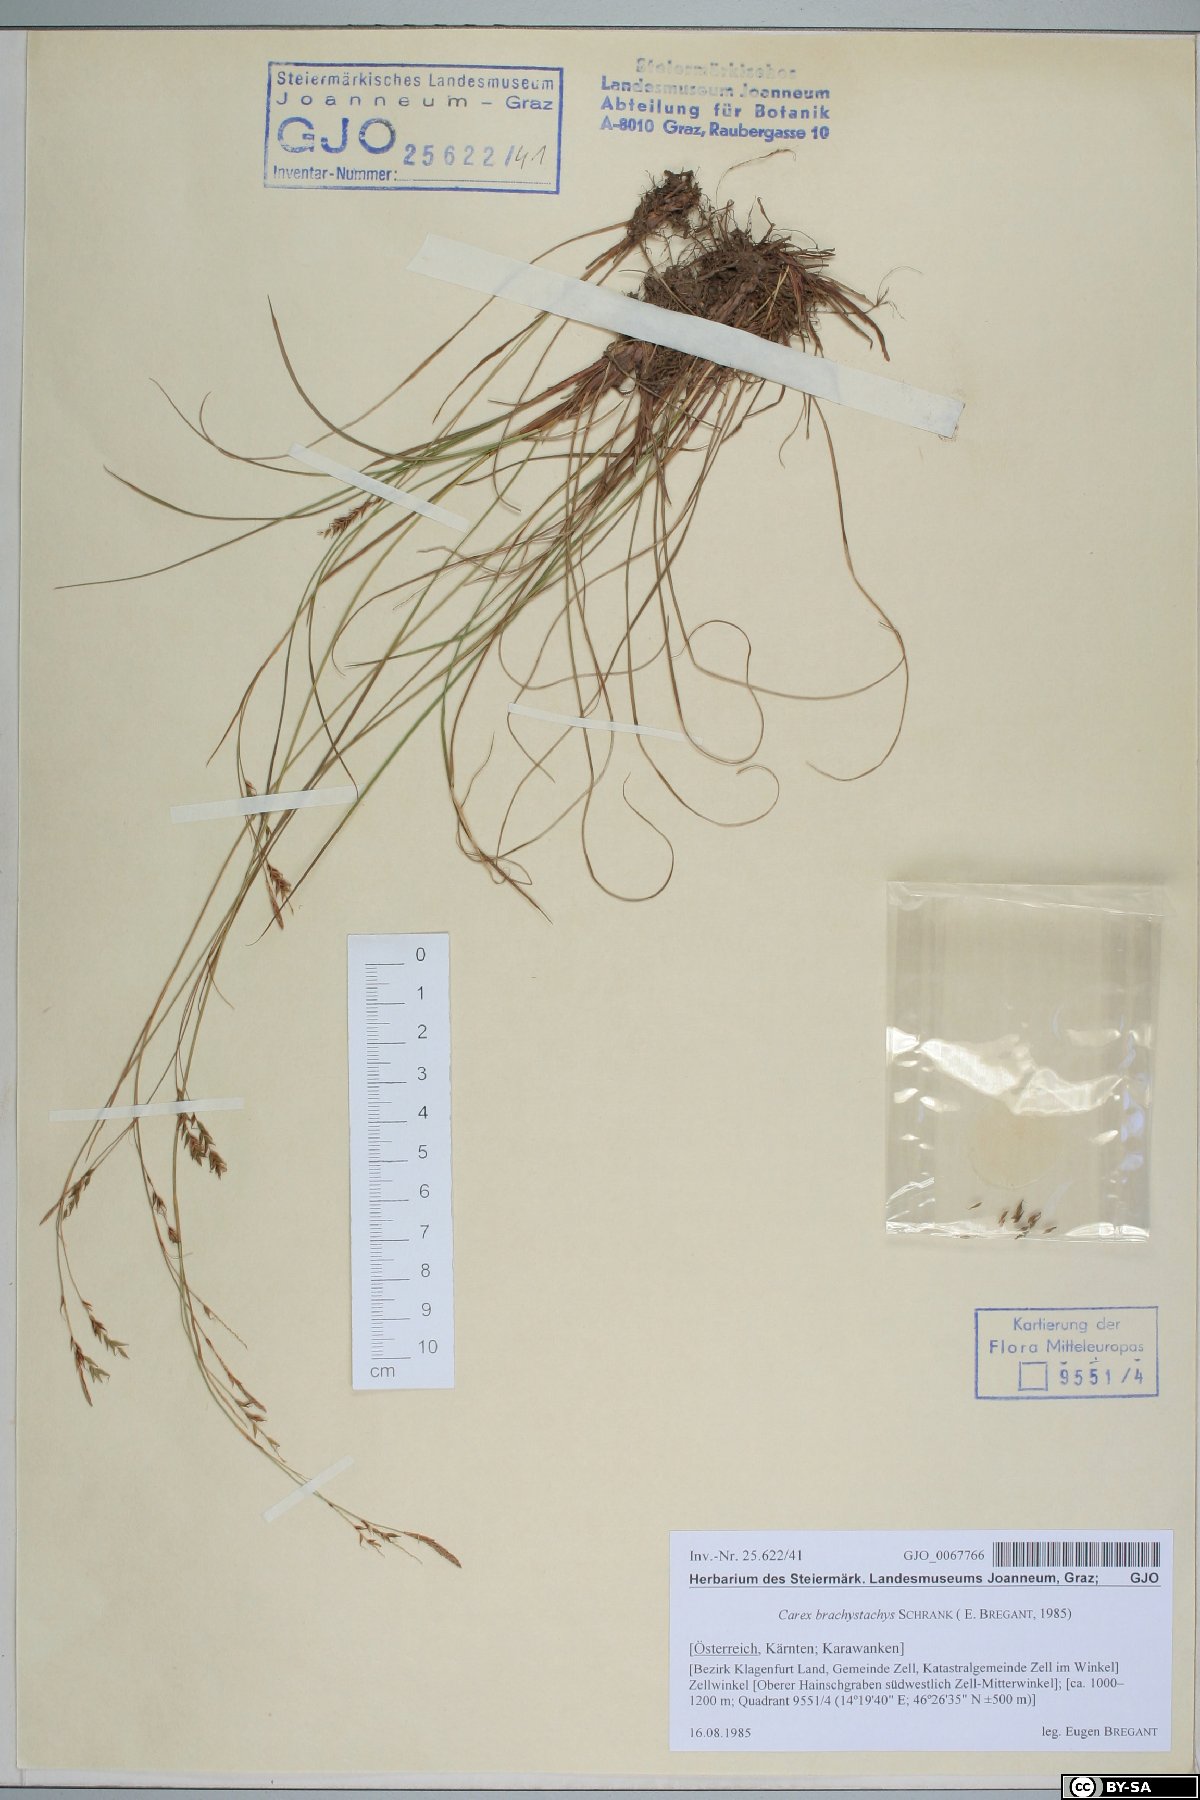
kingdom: Plantae
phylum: Tracheophyta
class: Liliopsida
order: Poales
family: Cyperaceae
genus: Carex
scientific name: Carex brachystachys
